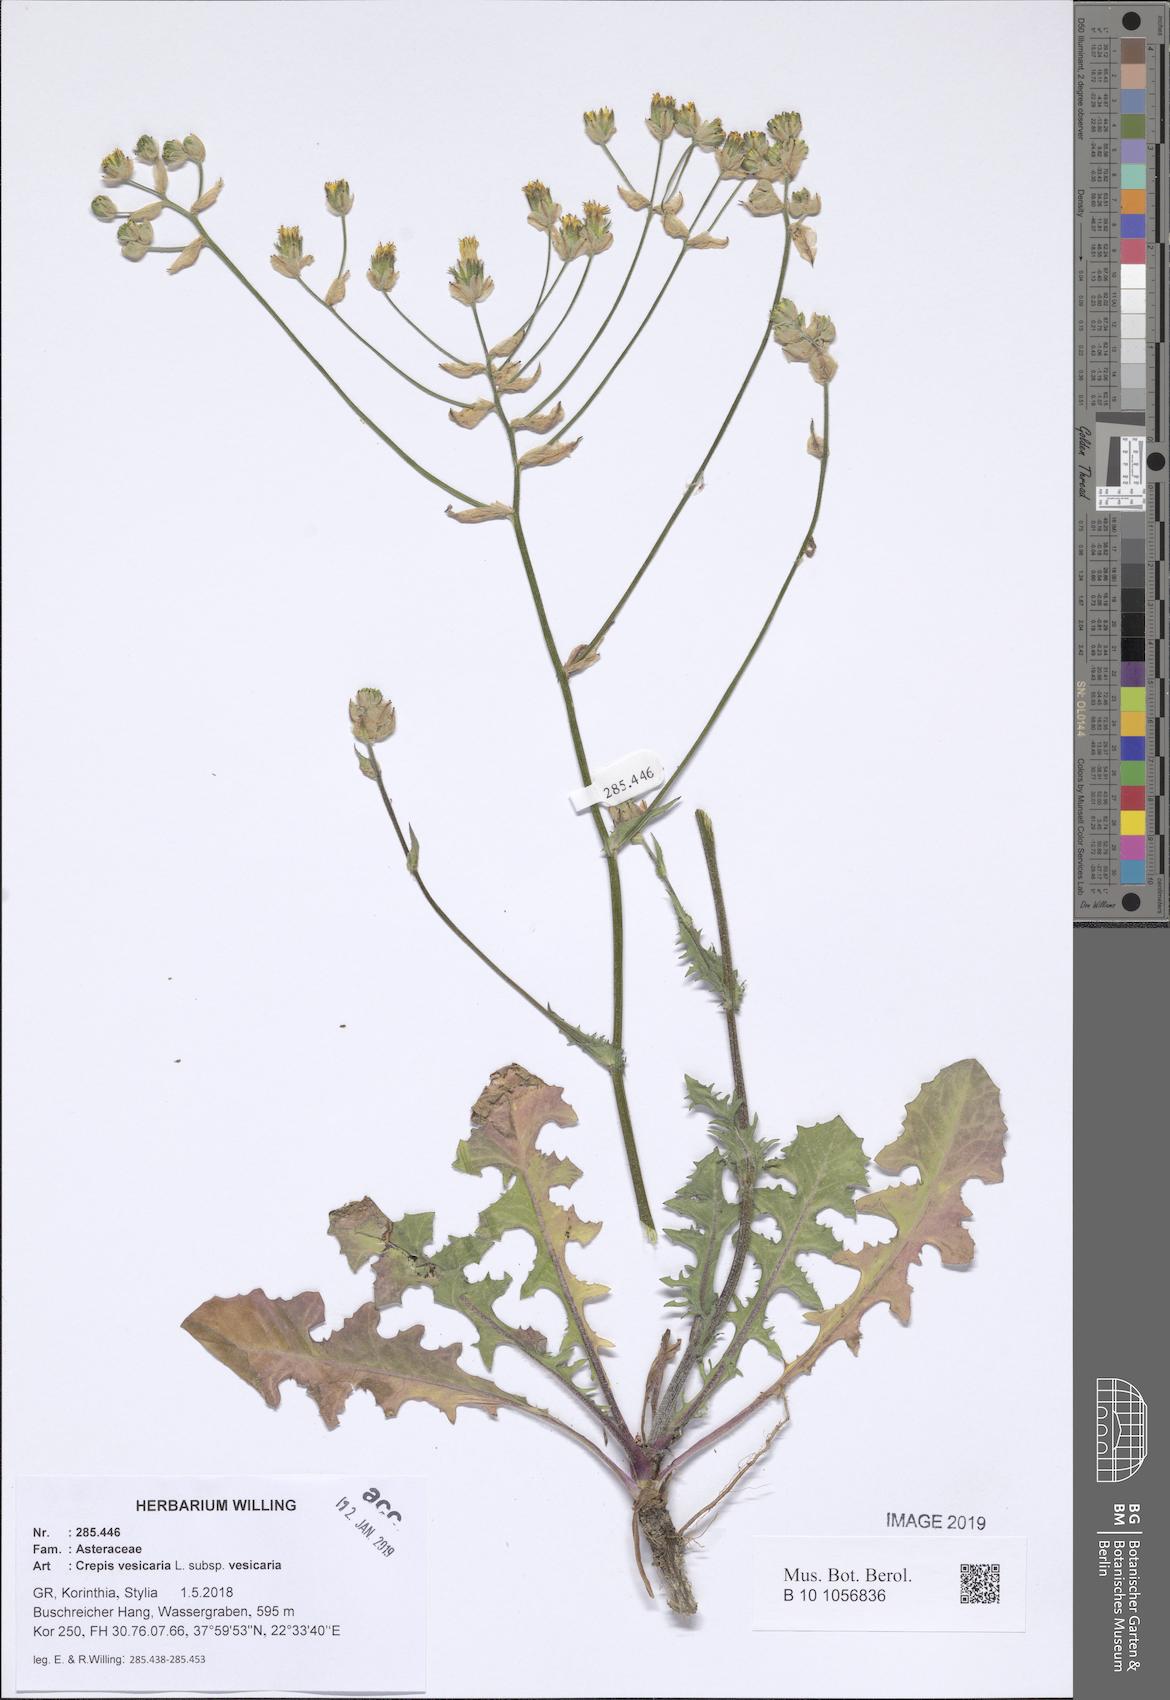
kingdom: Plantae
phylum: Tracheophyta
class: Magnoliopsida
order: Asterales
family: Asteraceae
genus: Crepis
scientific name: Crepis vesicaria
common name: Beaked hawksbeard
